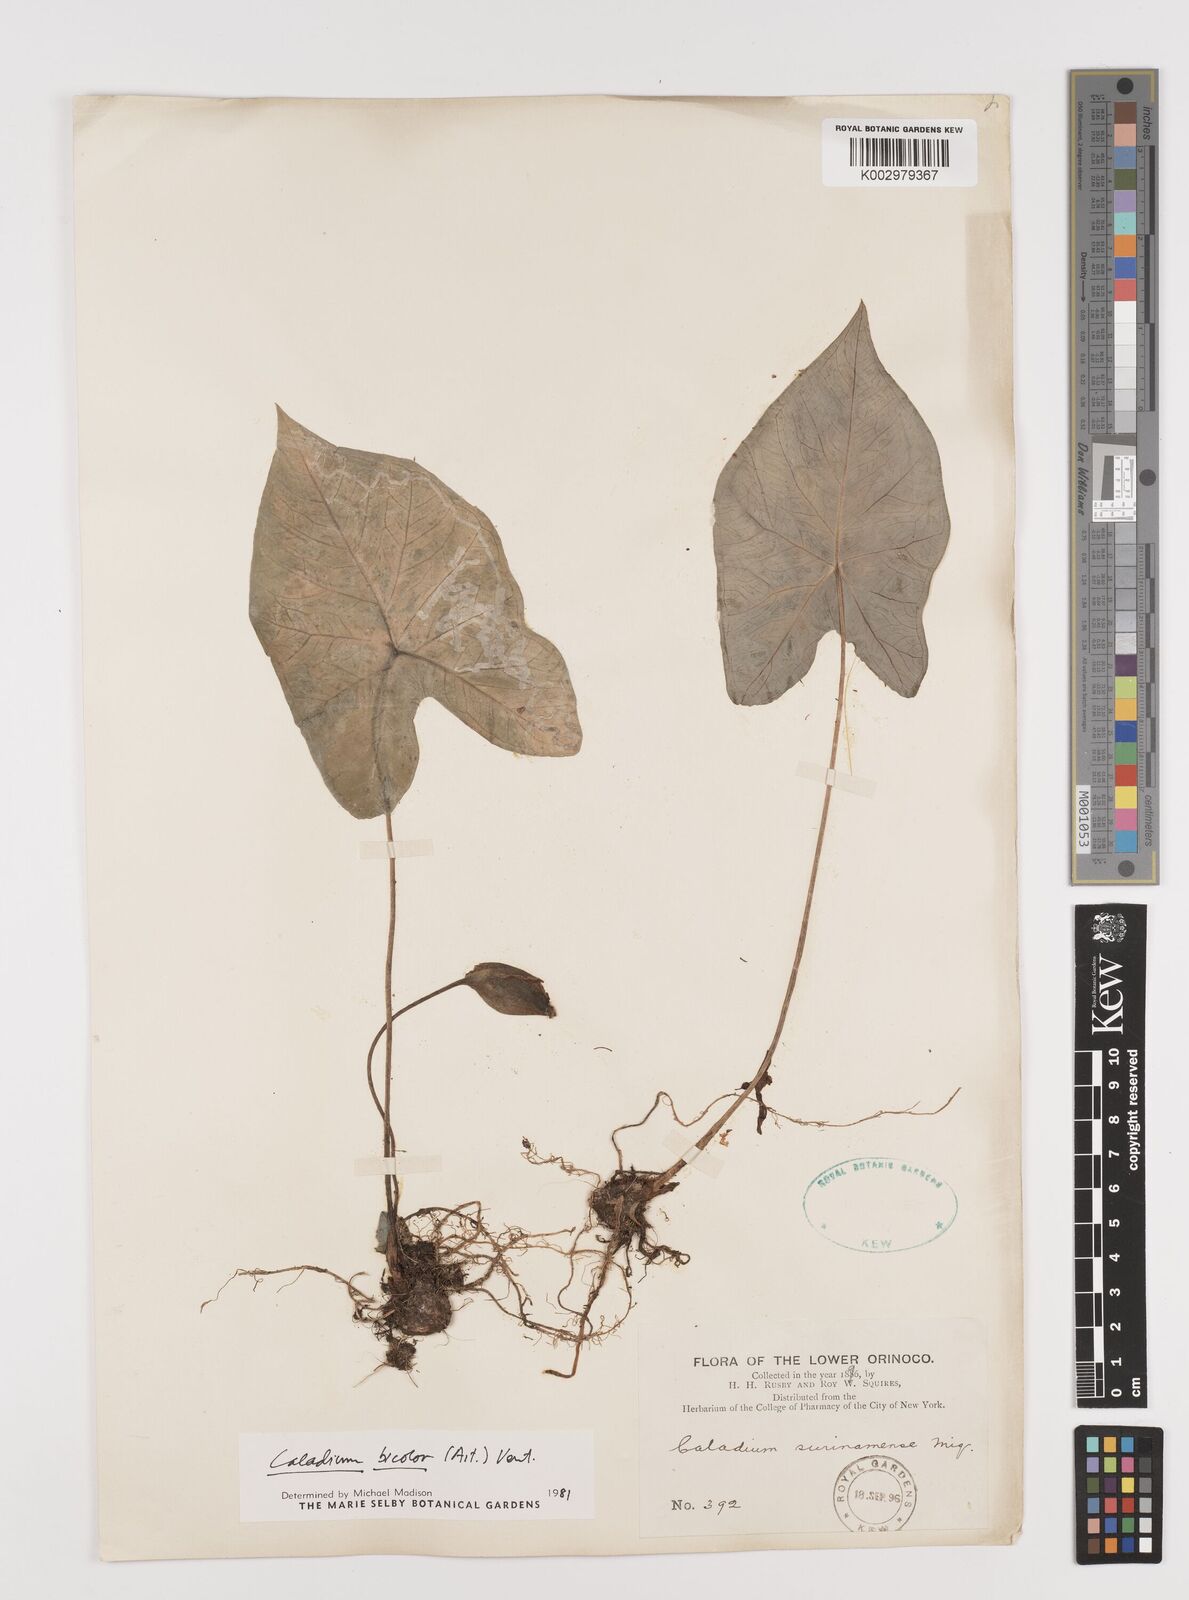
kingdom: Plantae
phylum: Tracheophyta
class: Liliopsida
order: Alismatales
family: Araceae
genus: Caladium
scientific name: Caladium bicolor
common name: Artist's pallet
